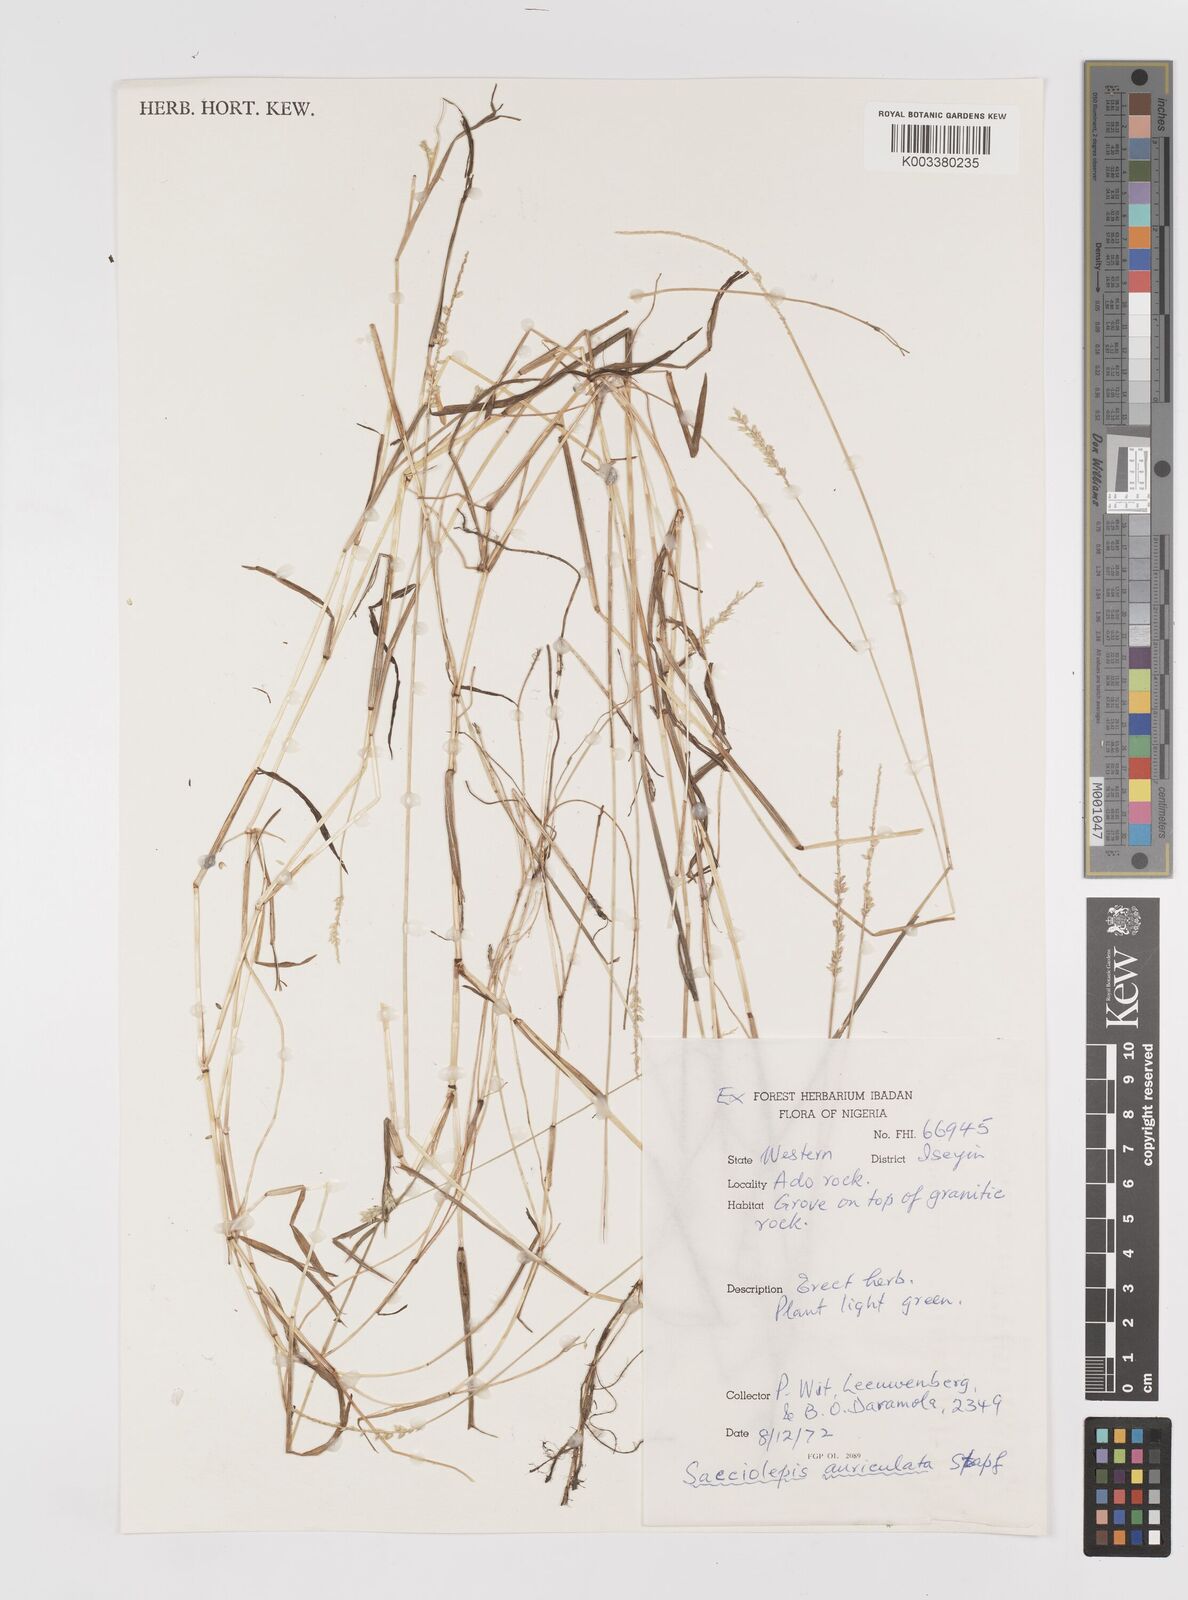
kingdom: Plantae
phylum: Tracheophyta
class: Liliopsida
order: Poales
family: Poaceae
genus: Sacciolepis
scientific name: Sacciolepis indica
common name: Glenwoodgrass
